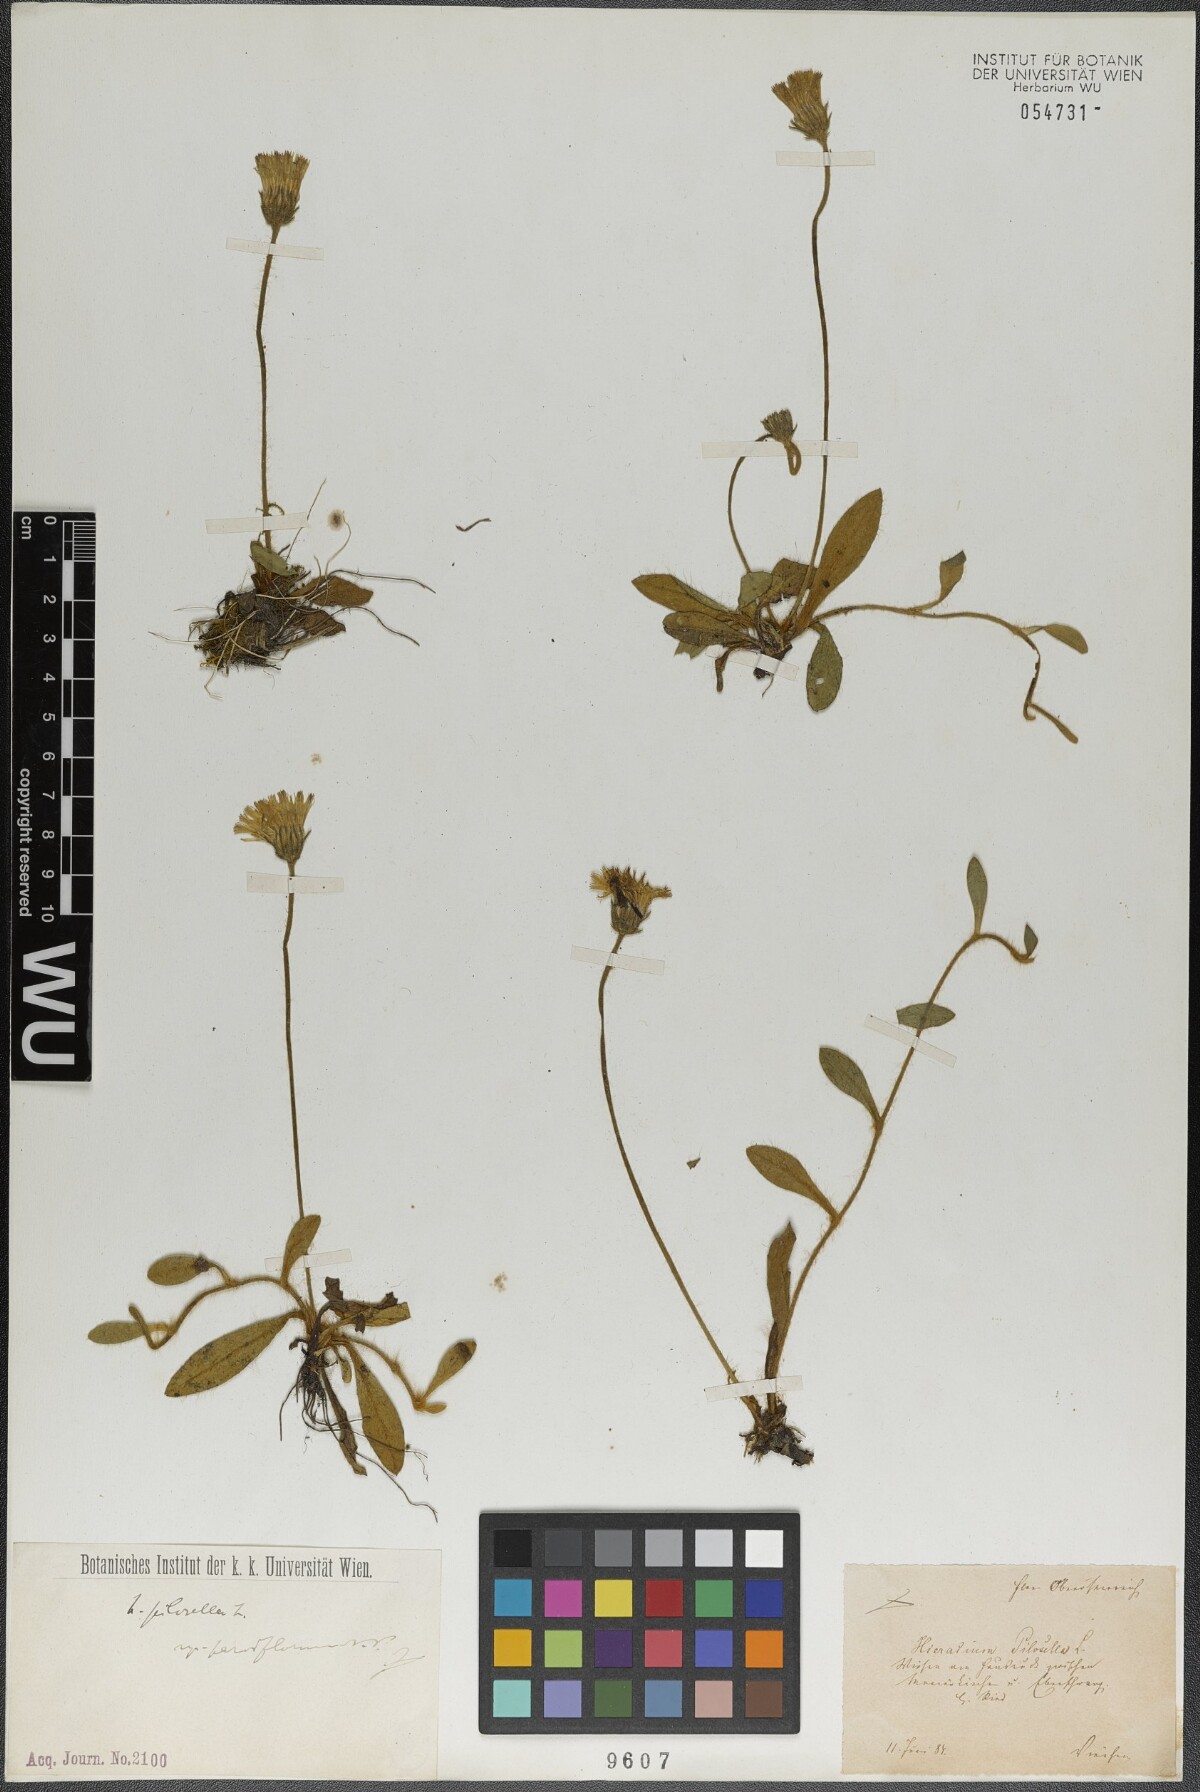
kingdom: Plantae
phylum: Tracheophyta
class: Magnoliopsida
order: Asterales
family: Asteraceae
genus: Pilosella
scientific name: Pilosella officinarum
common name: Mouse-ear hawkweed
